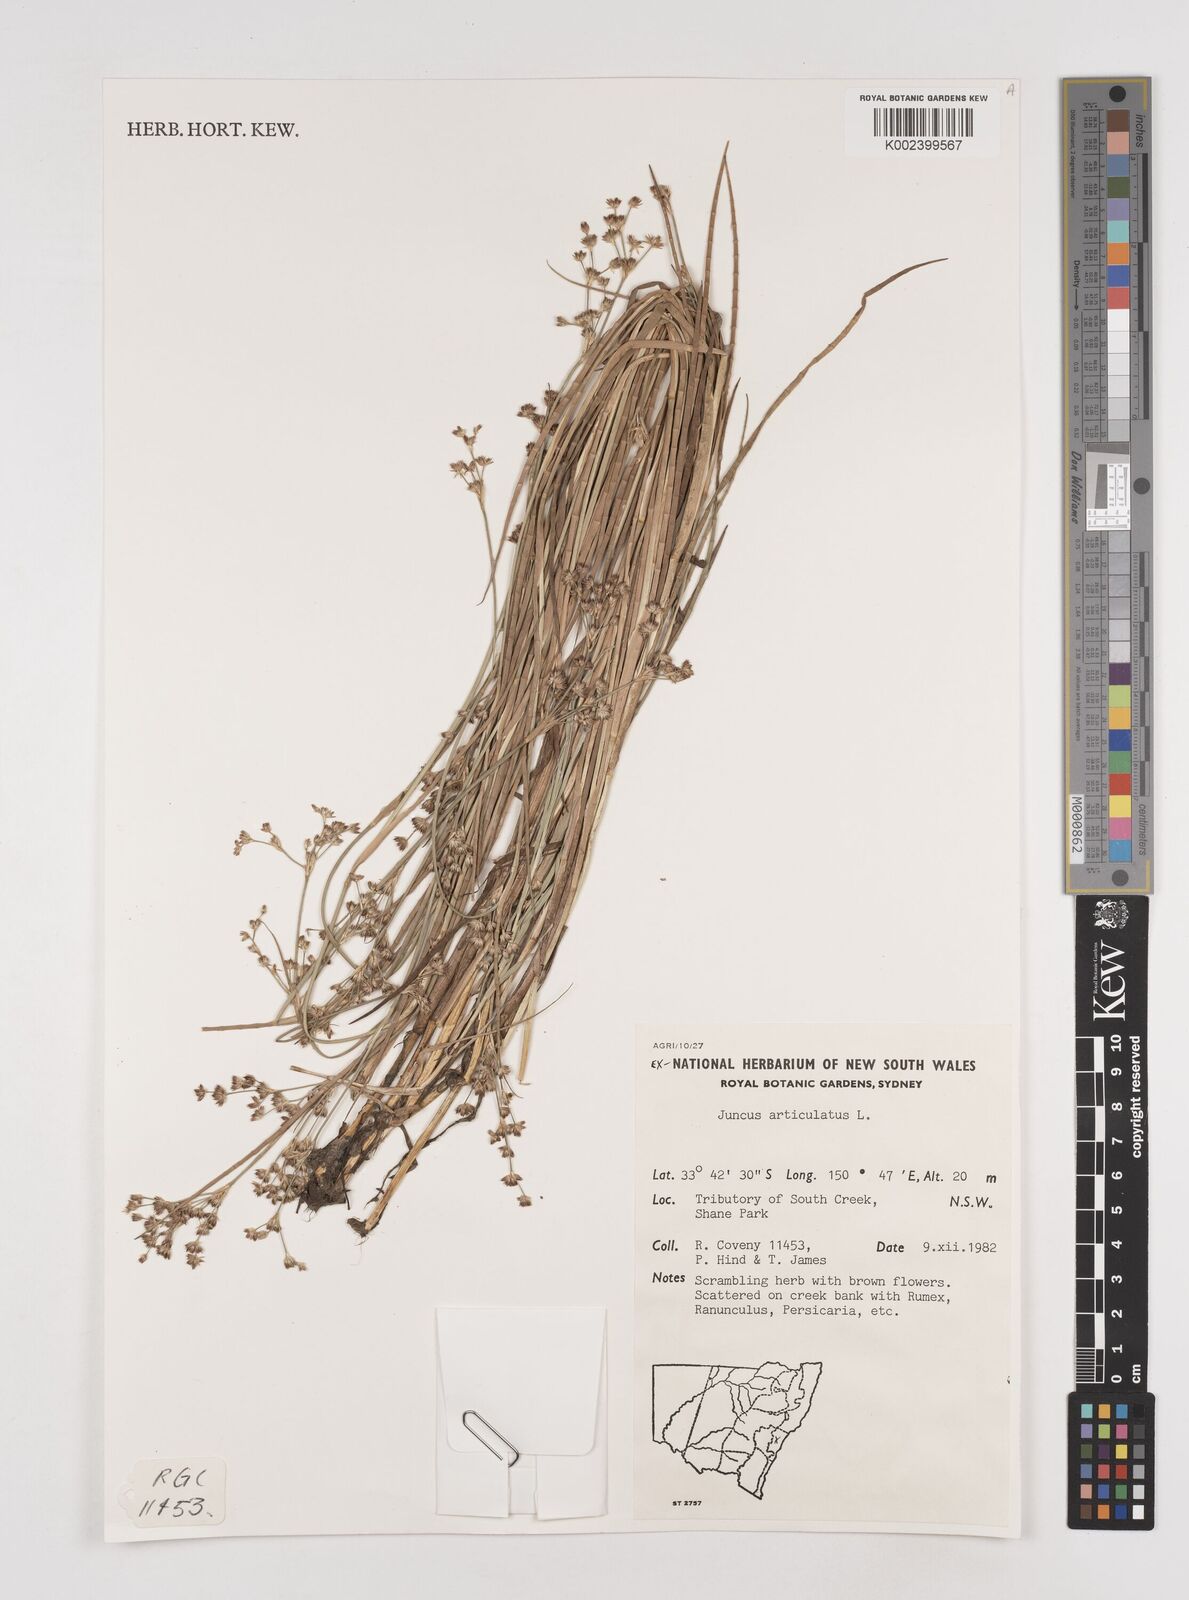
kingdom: Plantae
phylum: Tracheophyta
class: Liliopsida
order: Poales
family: Juncaceae
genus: Juncus
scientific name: Juncus articulatus
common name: Jointed rush
